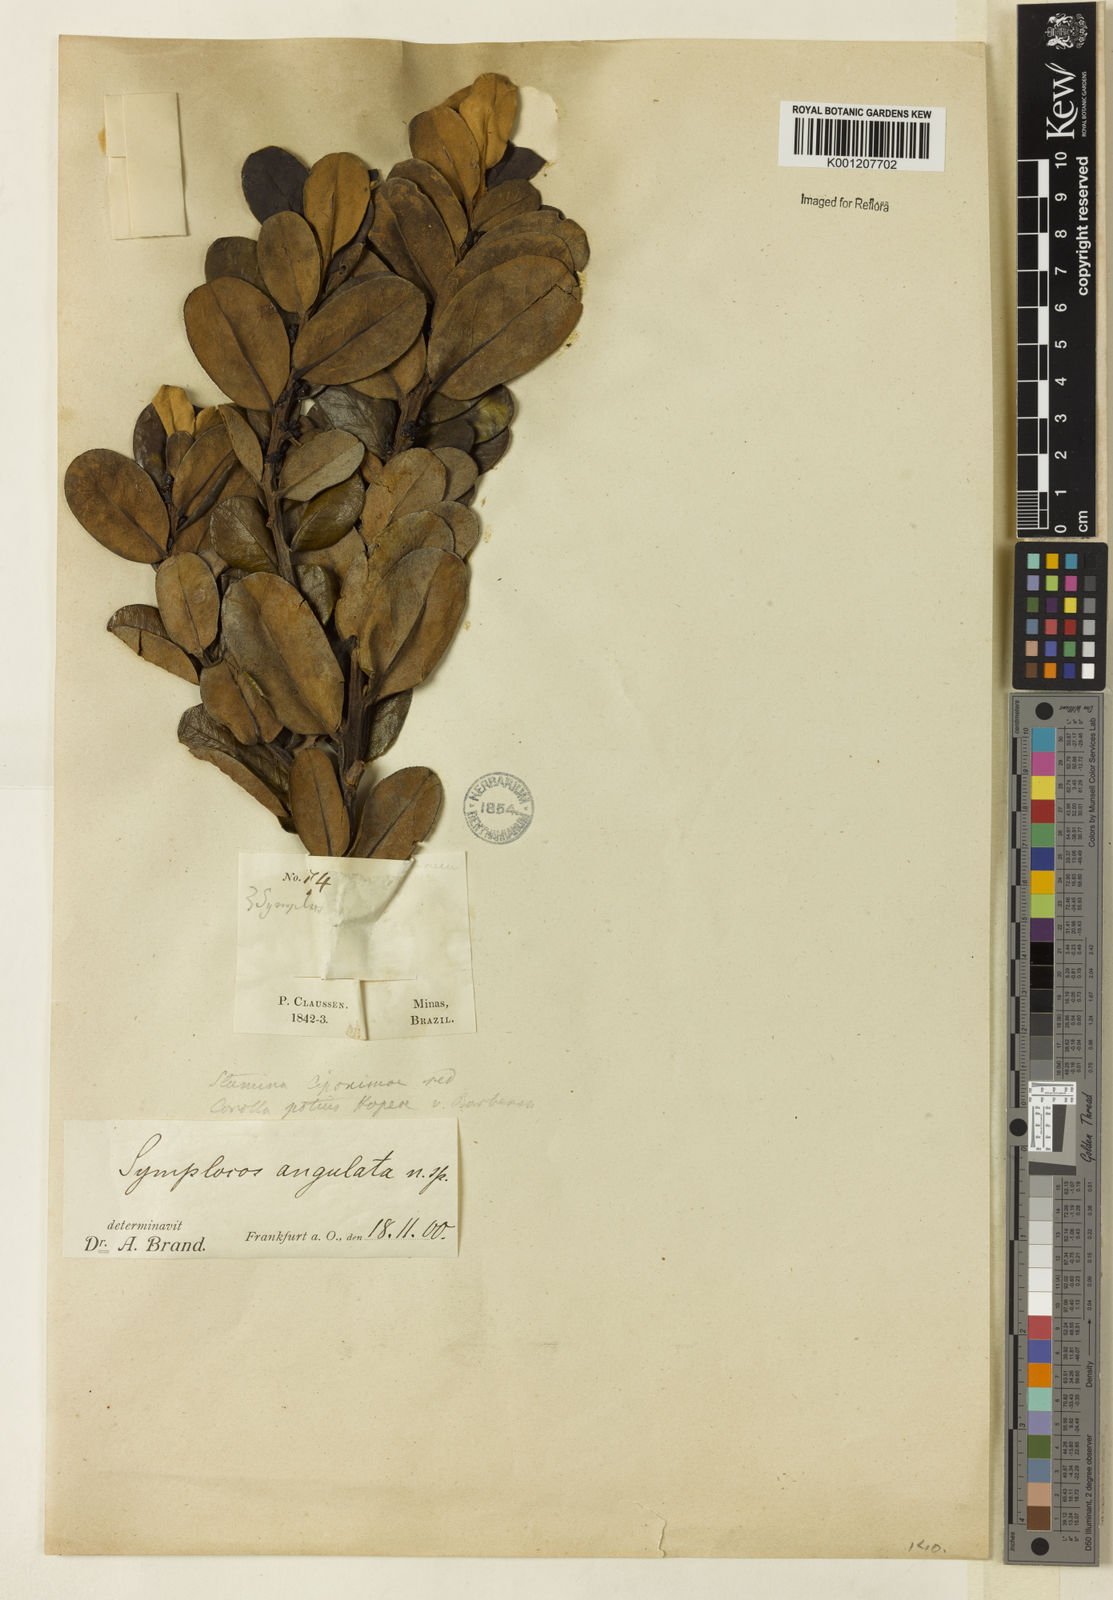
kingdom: Plantae
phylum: Tracheophyta
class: Magnoliopsida
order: Ericales
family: Symplocaceae
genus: Symplocos
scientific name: Symplocos angulata
